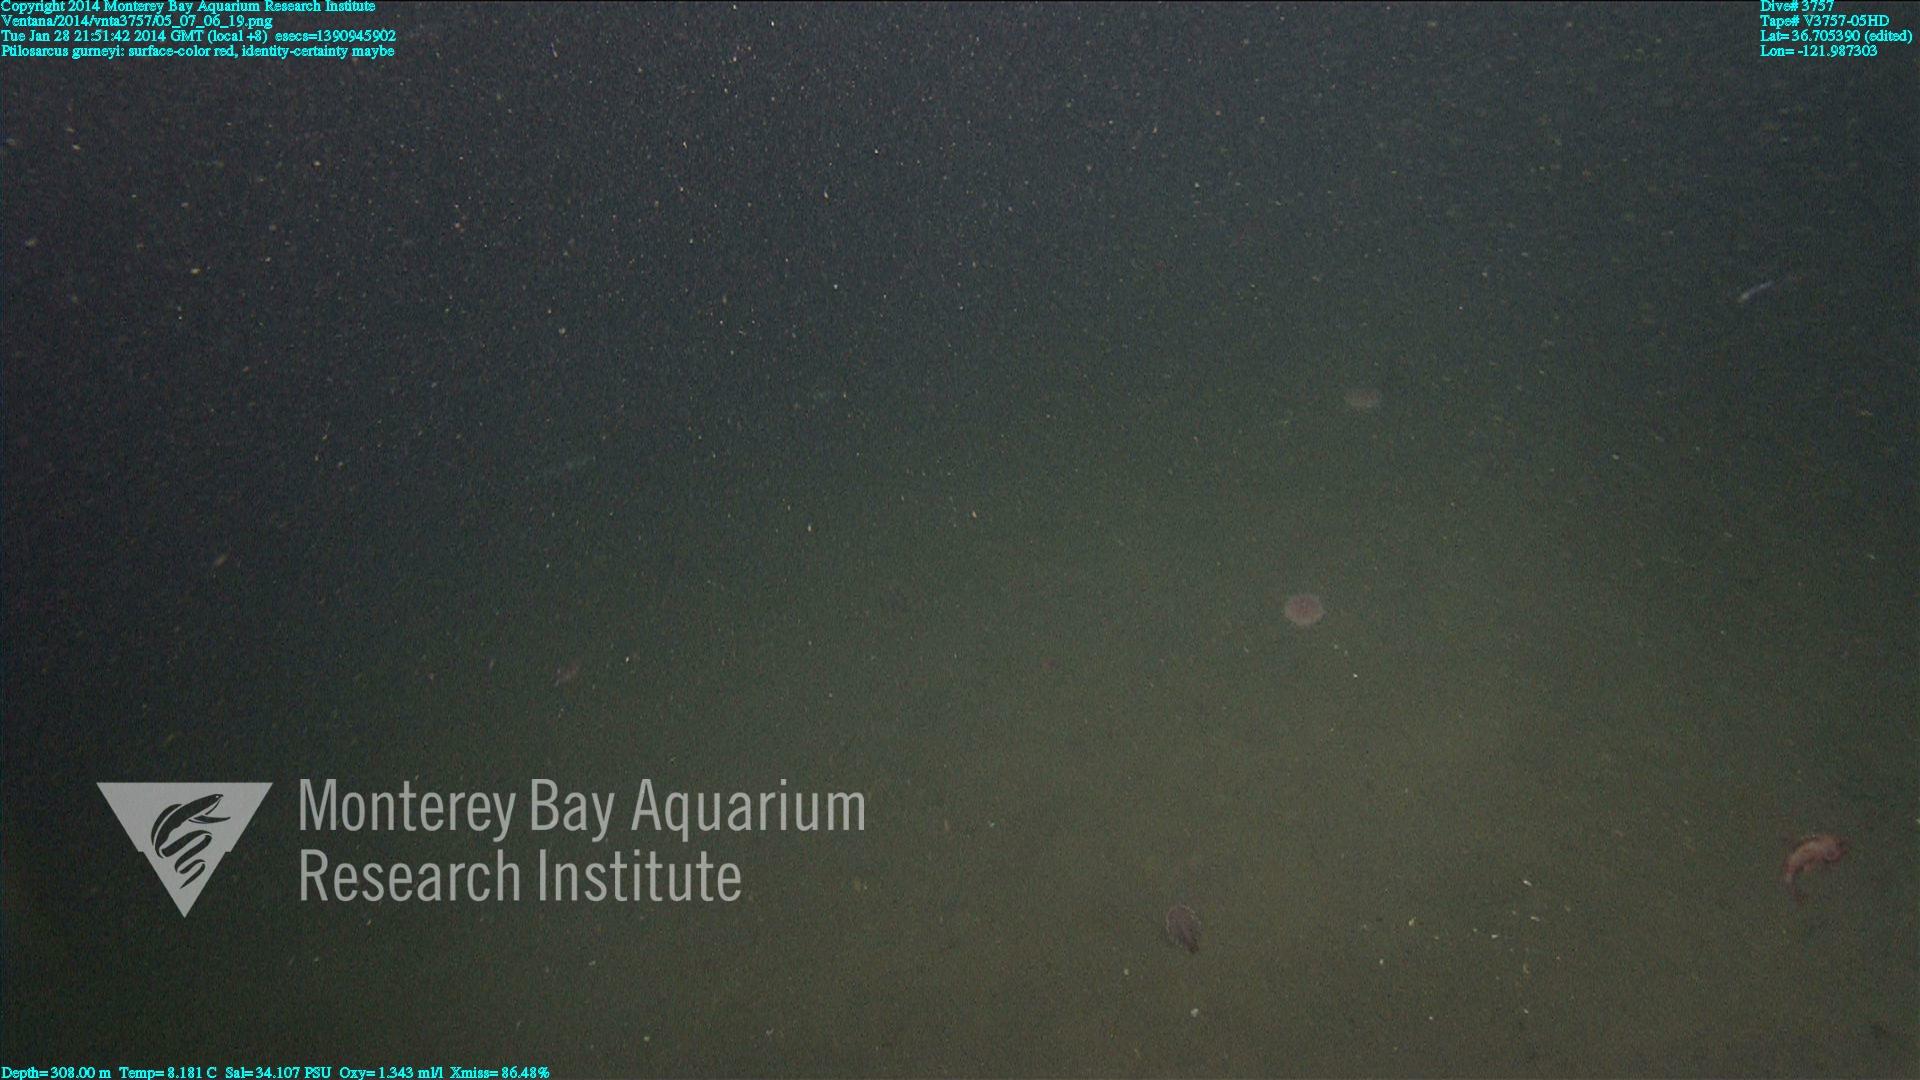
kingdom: Animalia
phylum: Cnidaria
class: Anthozoa
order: Scleralcyonacea
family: Pennatulidae
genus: Ptilosarcus
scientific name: Ptilosarcus gurneyi
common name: Gurney's sea pen
